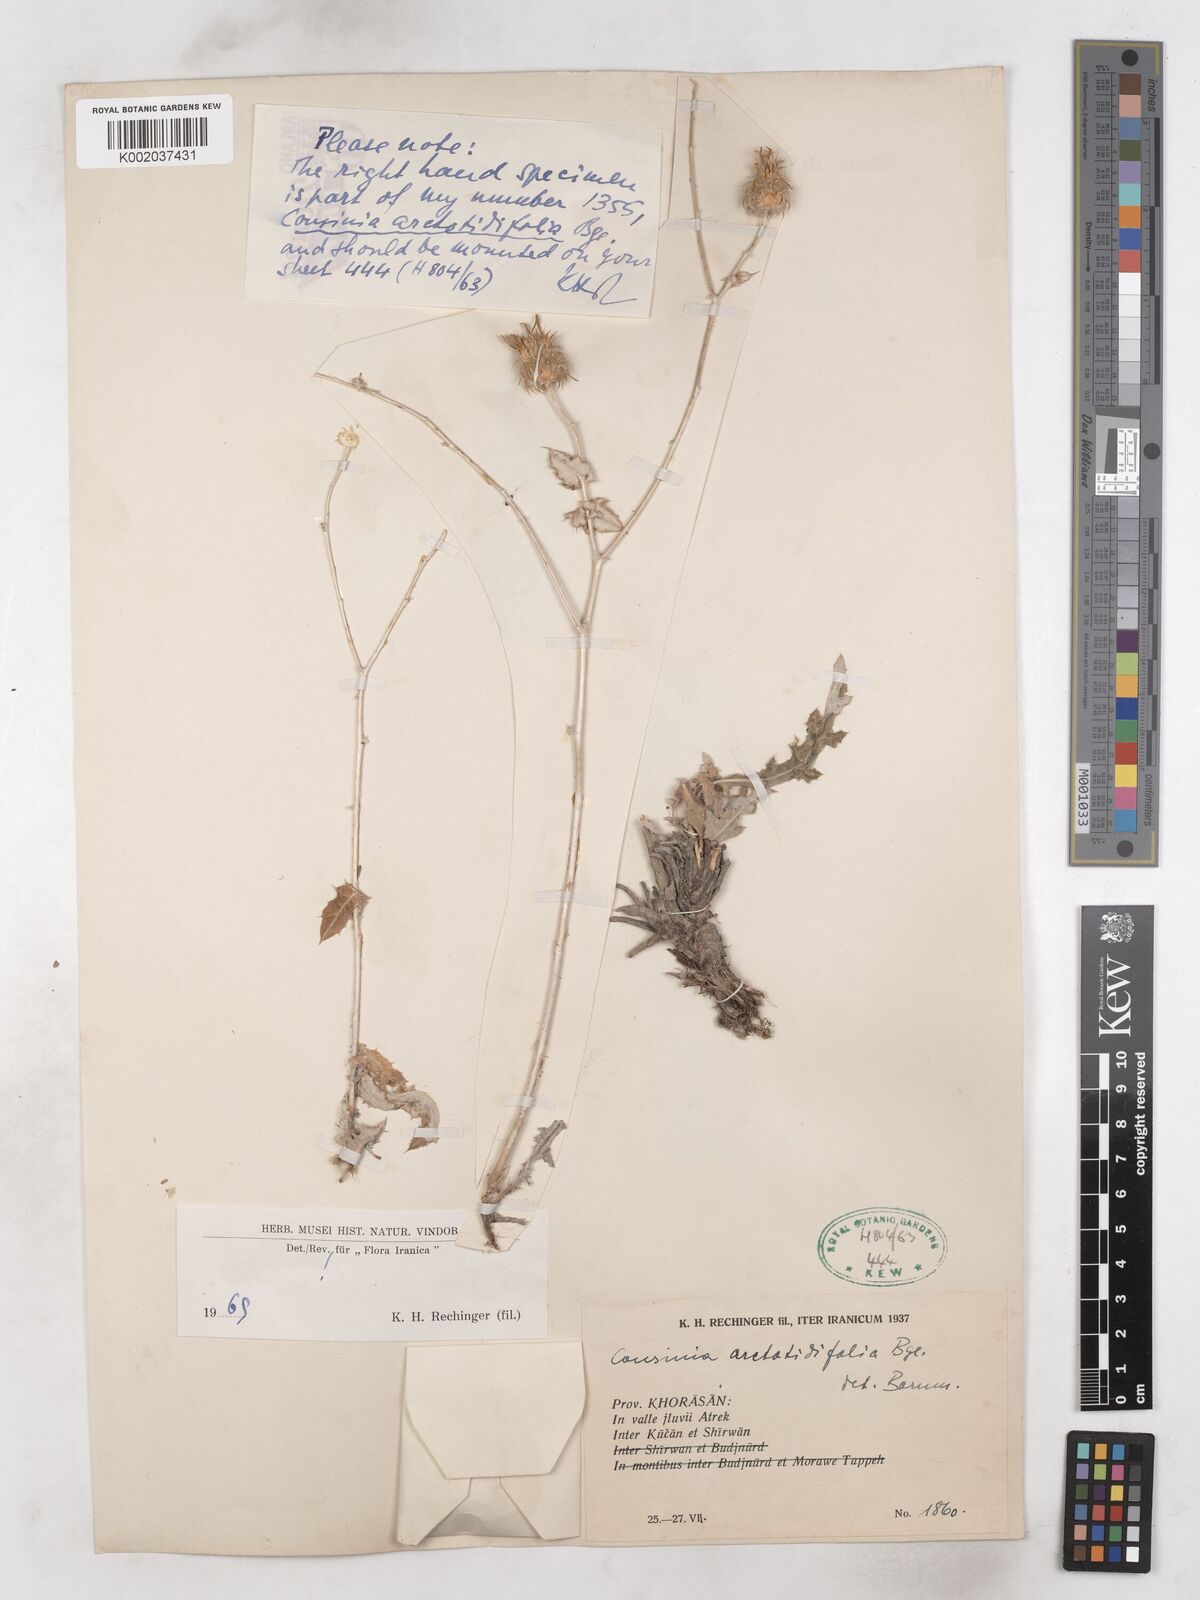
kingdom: Plantae
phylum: Tracheophyta
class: Magnoliopsida
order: Asterales
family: Asteraceae
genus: Cousinia
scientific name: Cousinia arctotidifolia
